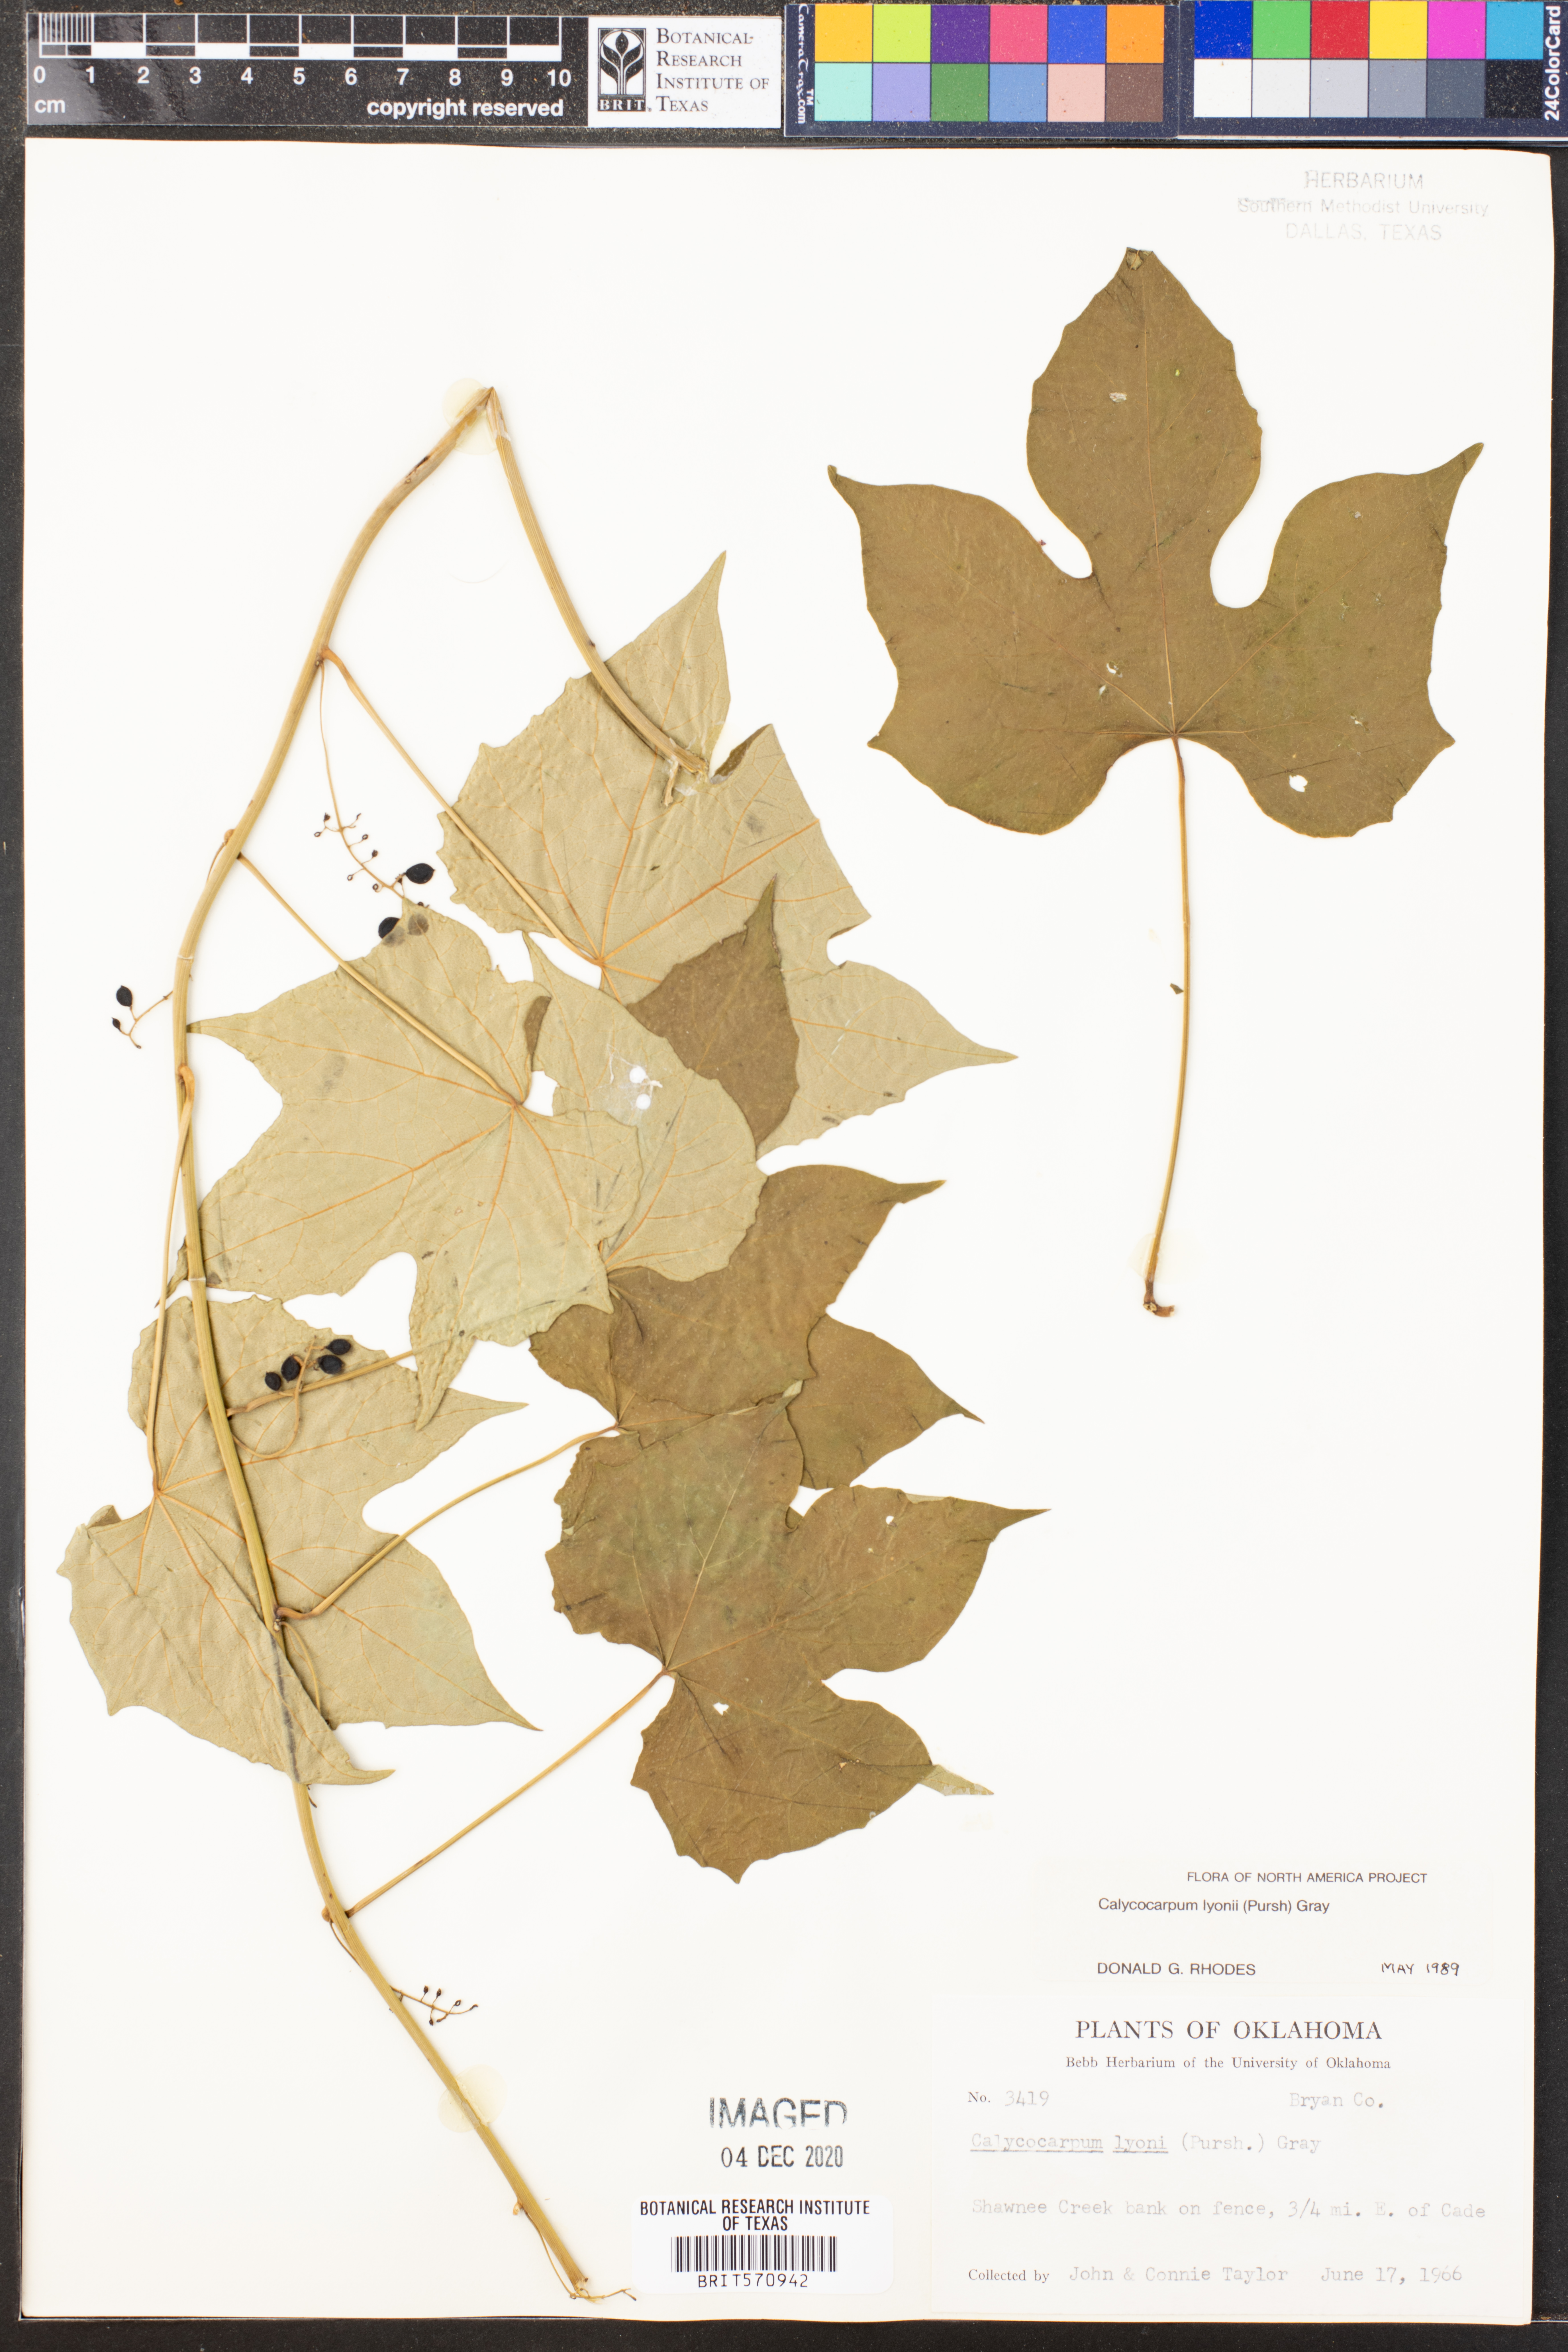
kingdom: Plantae
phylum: Tracheophyta
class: Magnoliopsida
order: Ranunculales
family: Menispermaceae
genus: Calycocarpum
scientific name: Calycocarpum lyonii
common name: Cupseed
